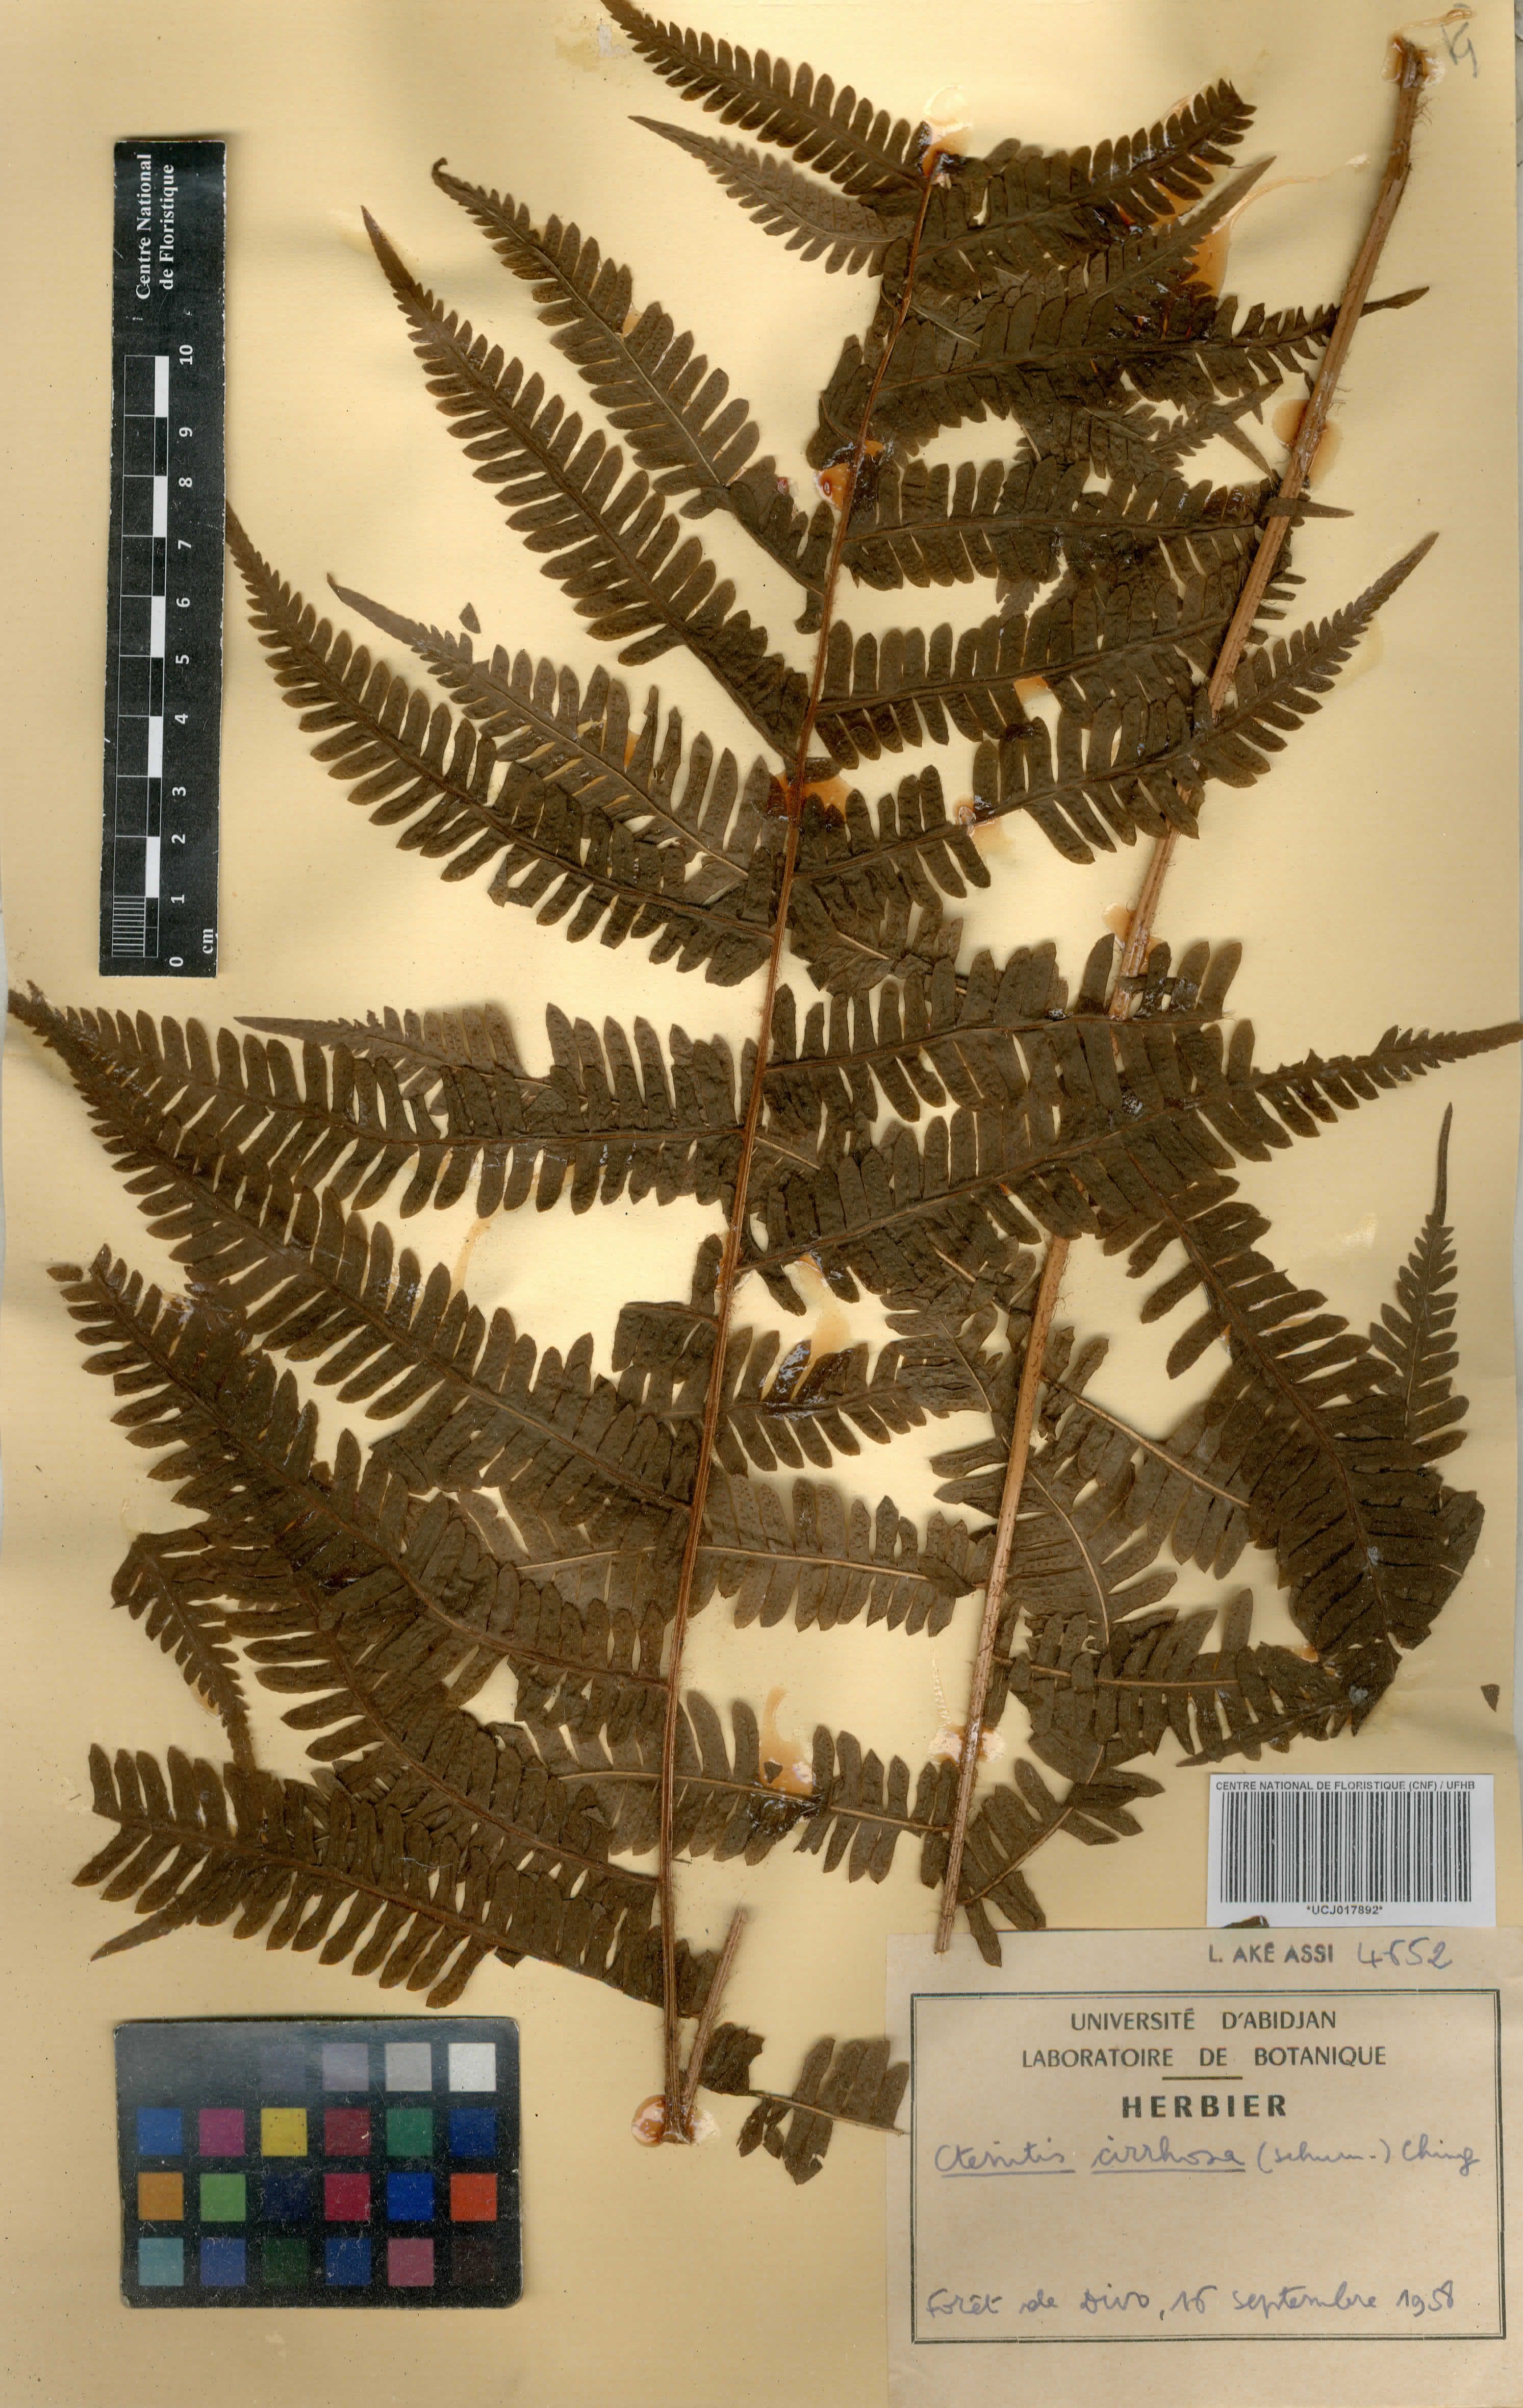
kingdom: Plantae
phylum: Tracheophyta
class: Polypodiopsida
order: Polypodiales
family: Dryopteridaceae
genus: Ctenitis
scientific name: Ctenitis cirrhosa
